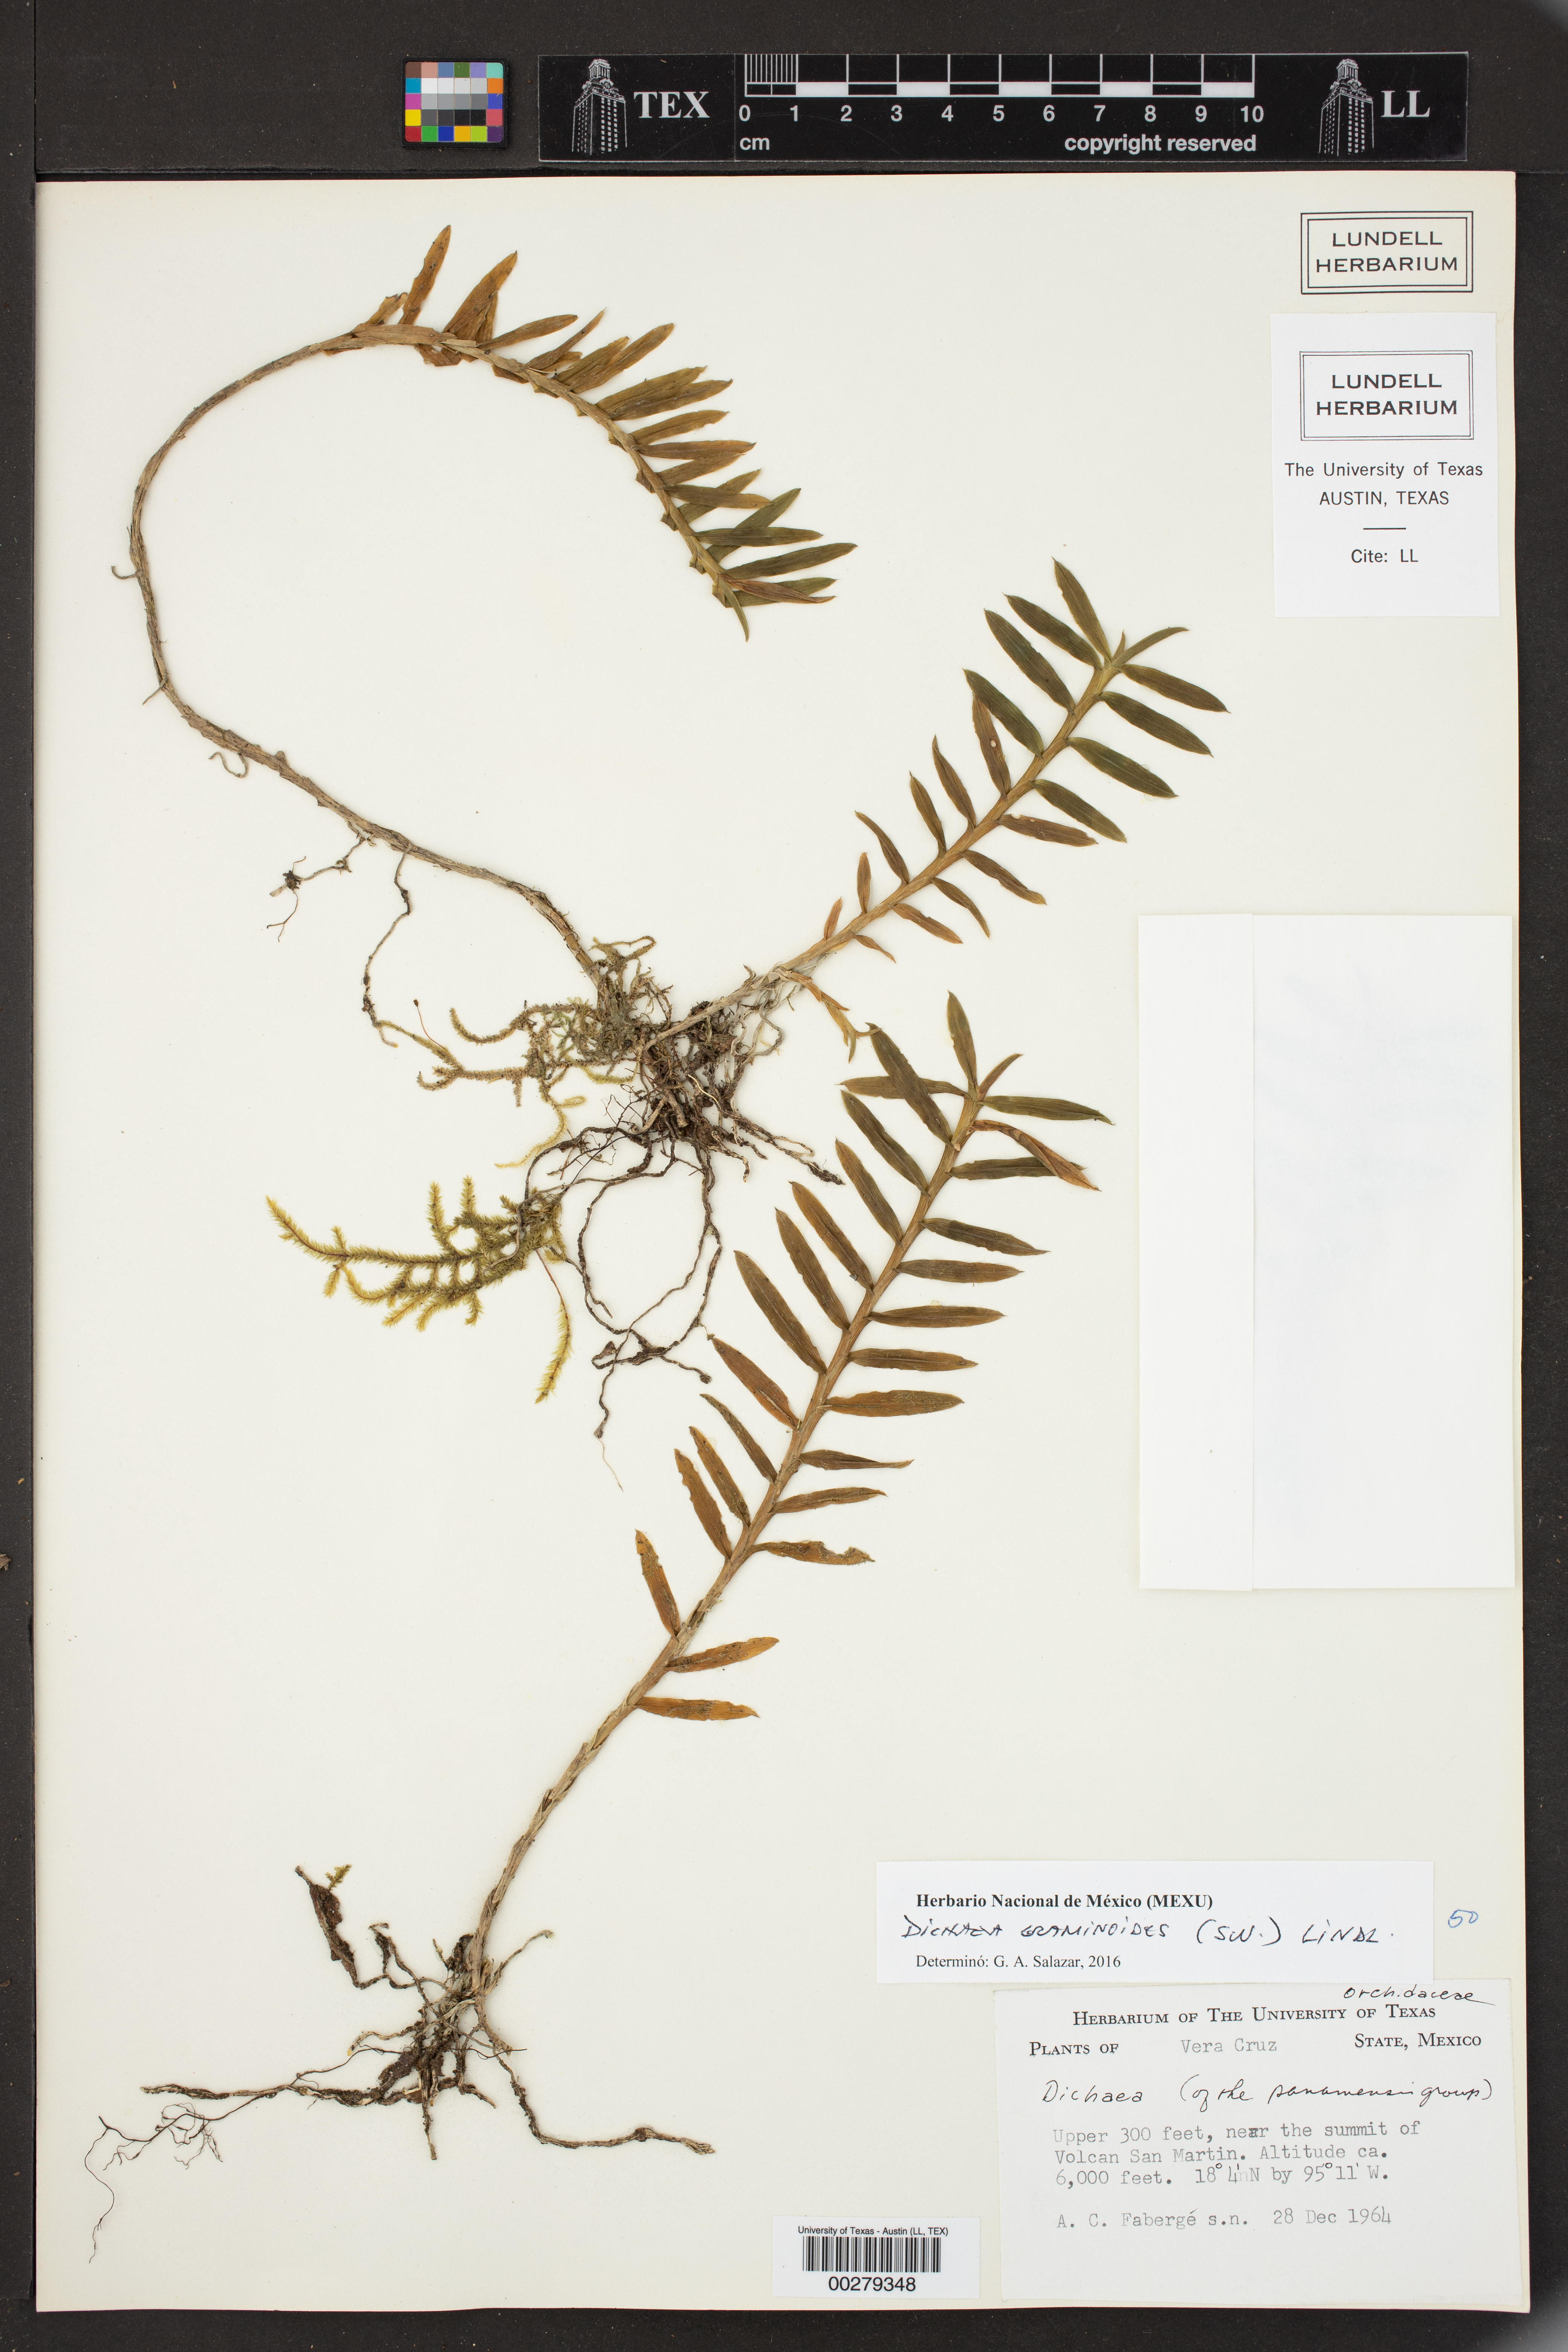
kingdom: Plantae
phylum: Tracheophyta
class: Liliopsida
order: Asparagales
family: Orchidaceae
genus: Dichaea
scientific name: Dichaea graminoides
